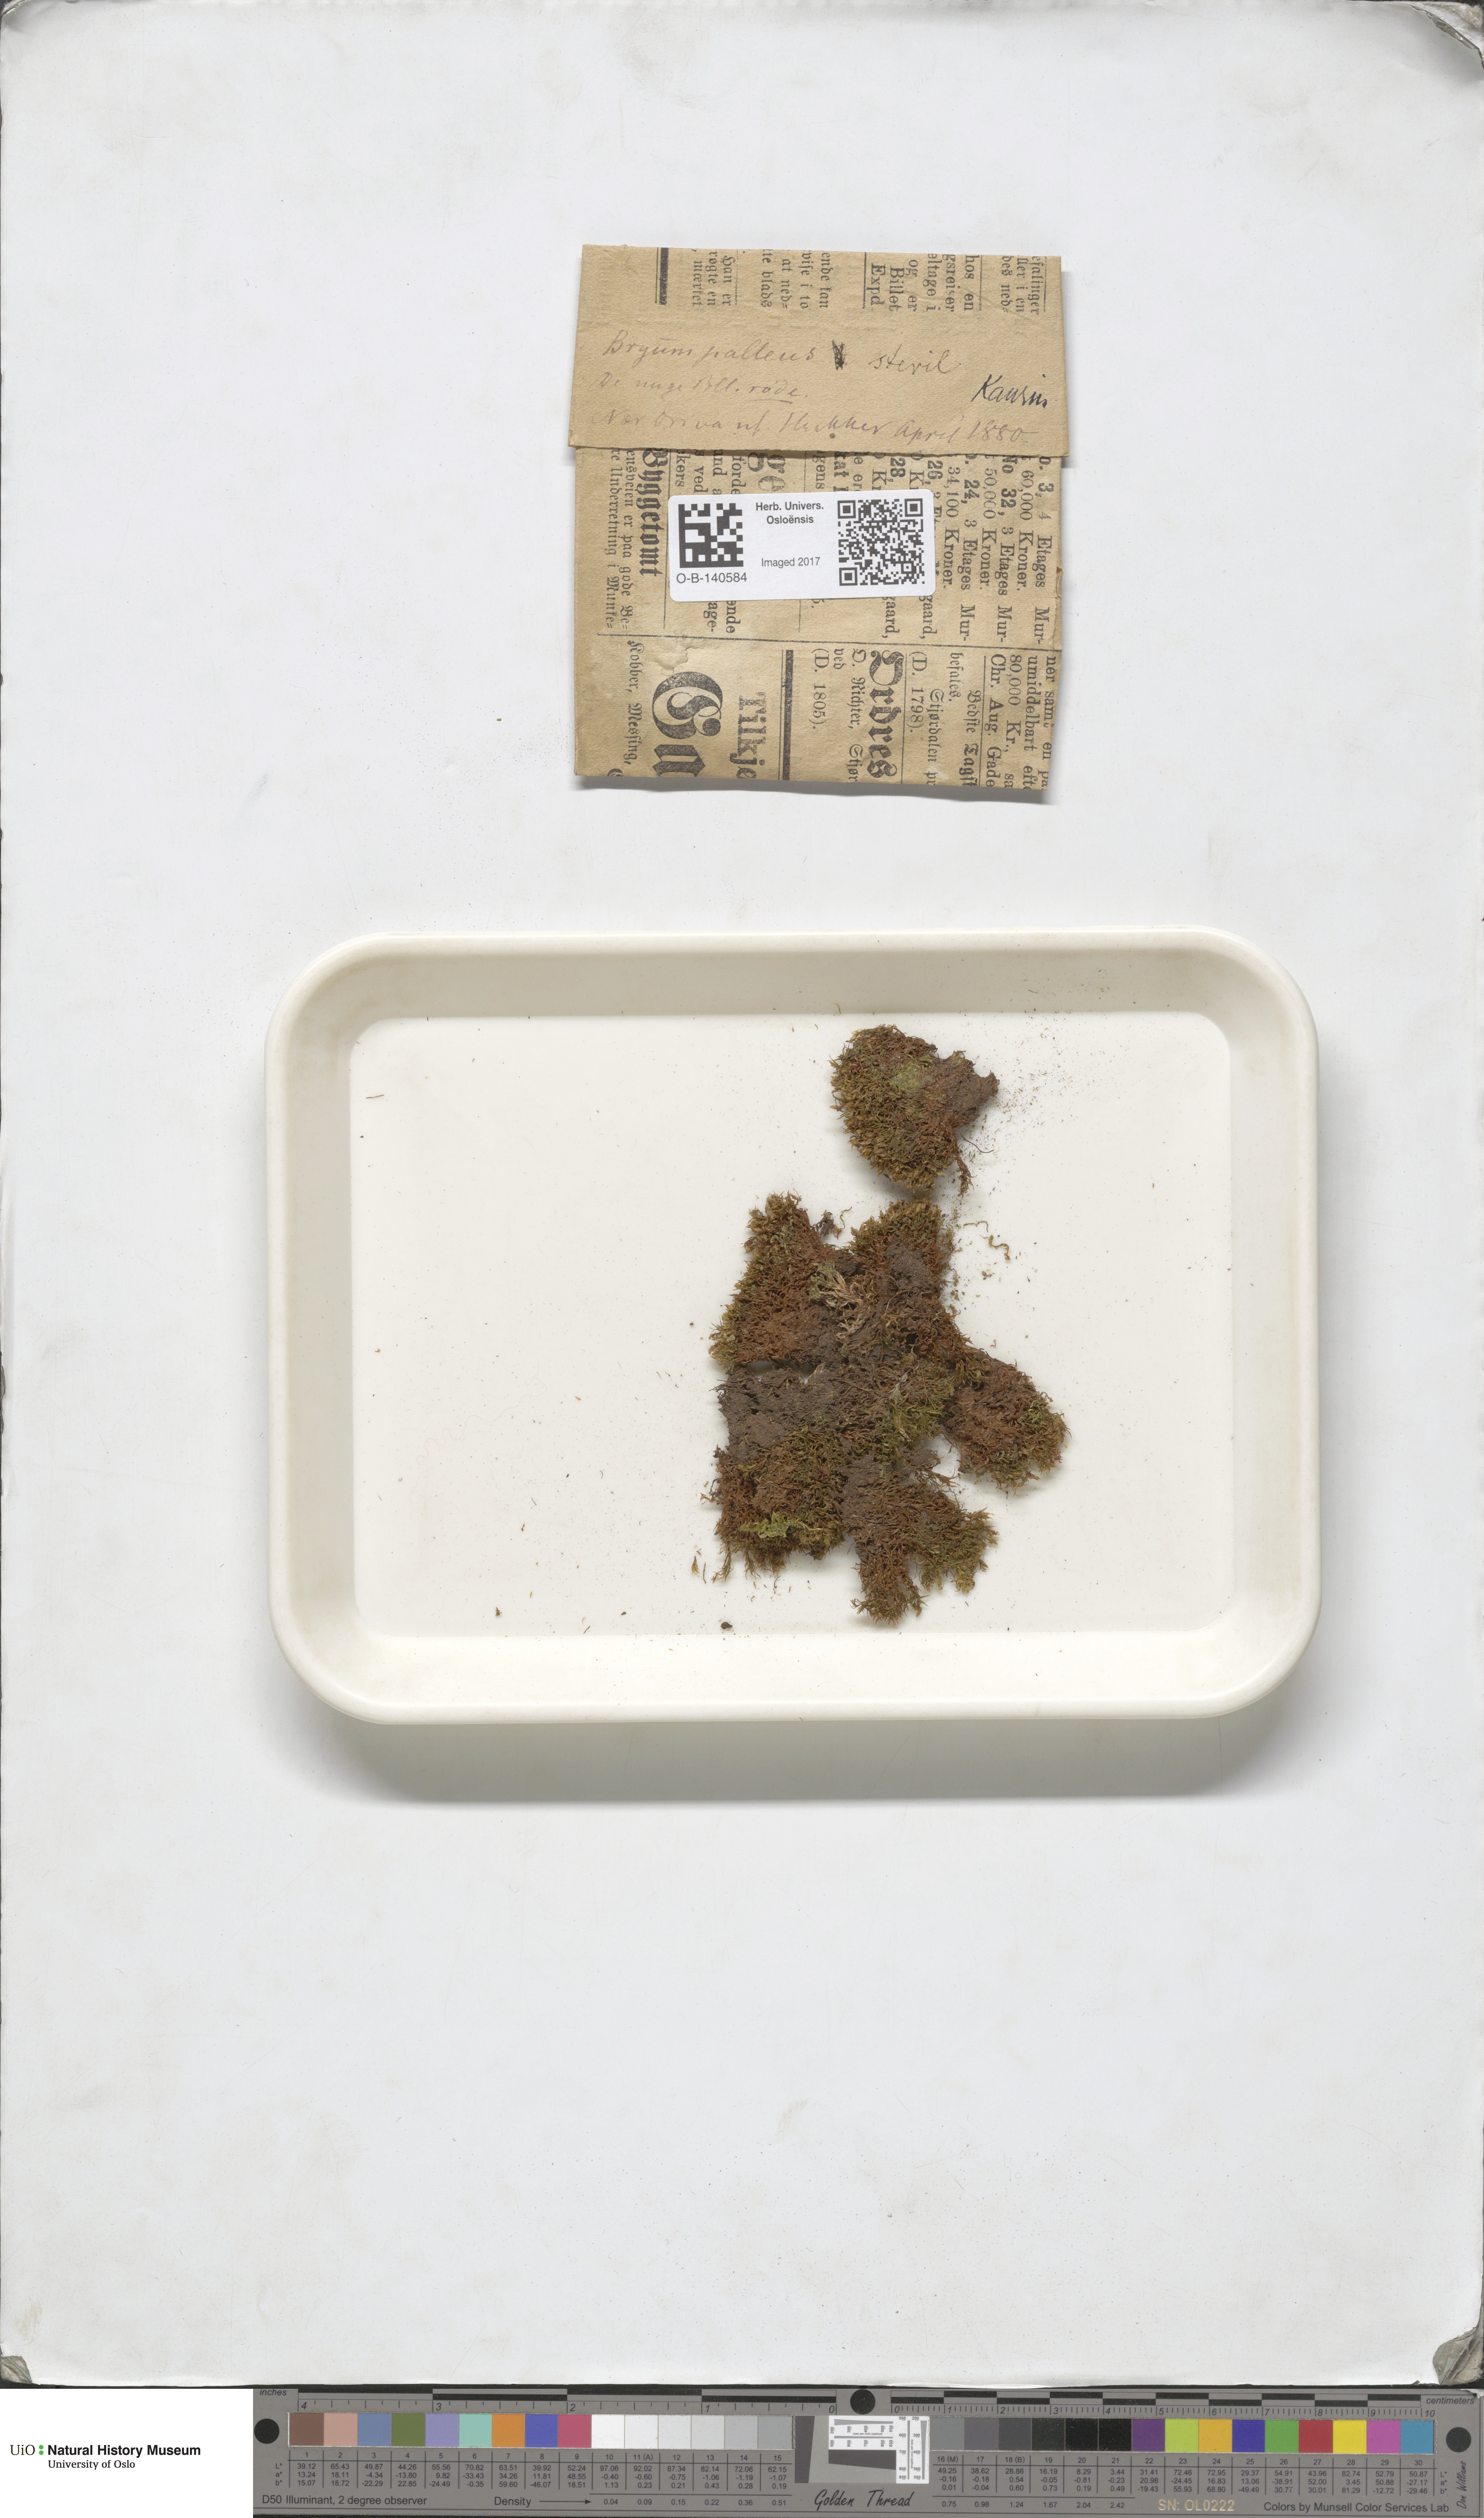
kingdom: Plantae
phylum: Bryophyta
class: Bryopsida
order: Bryales
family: Bryaceae
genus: Ptychostomum
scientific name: Ptychostomum pallens
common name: Pale thread-moss
